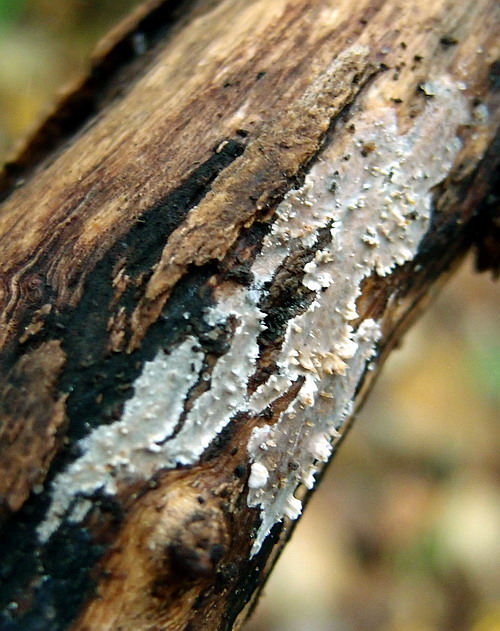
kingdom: Fungi
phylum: Basidiomycota
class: Agaricomycetes
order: Auriculariales
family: Auriculariaceae
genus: Heteroradulum
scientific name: Heteroradulum deglubens
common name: bævreskorpe
